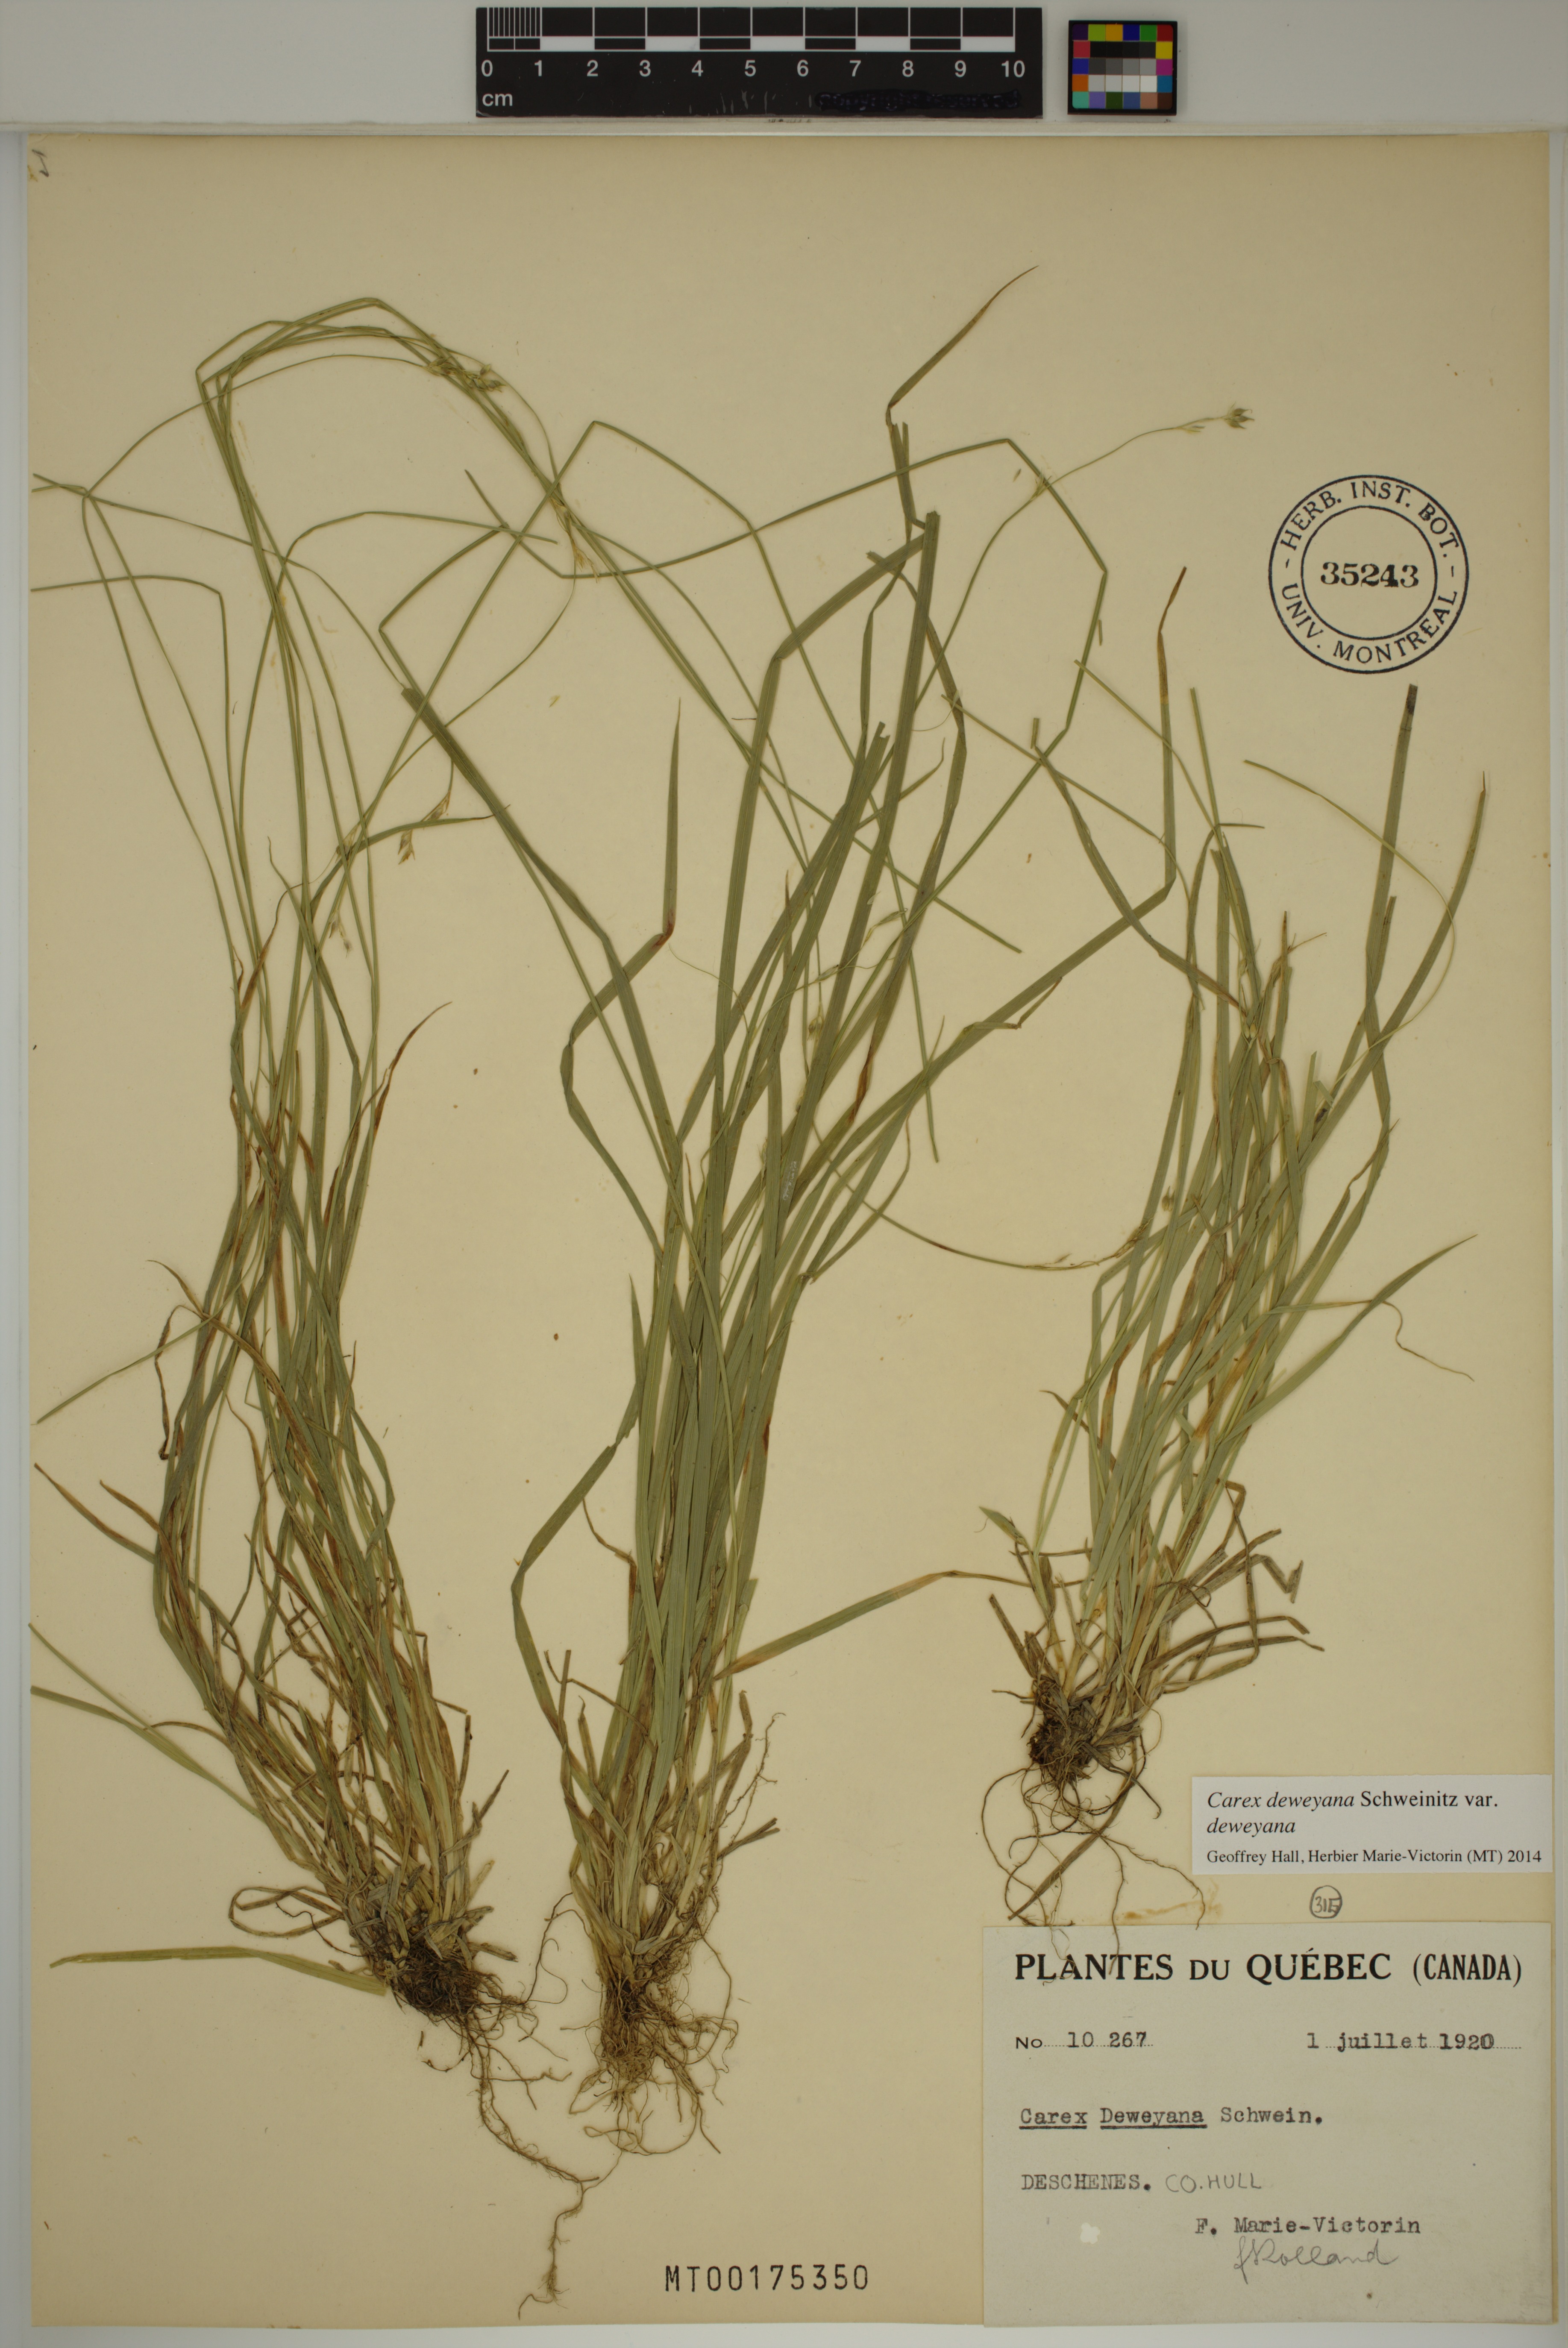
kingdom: Plantae
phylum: Tracheophyta
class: Liliopsida
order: Poales
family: Cyperaceae
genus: Carex
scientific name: Carex deweyana
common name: Dewey's sedge
